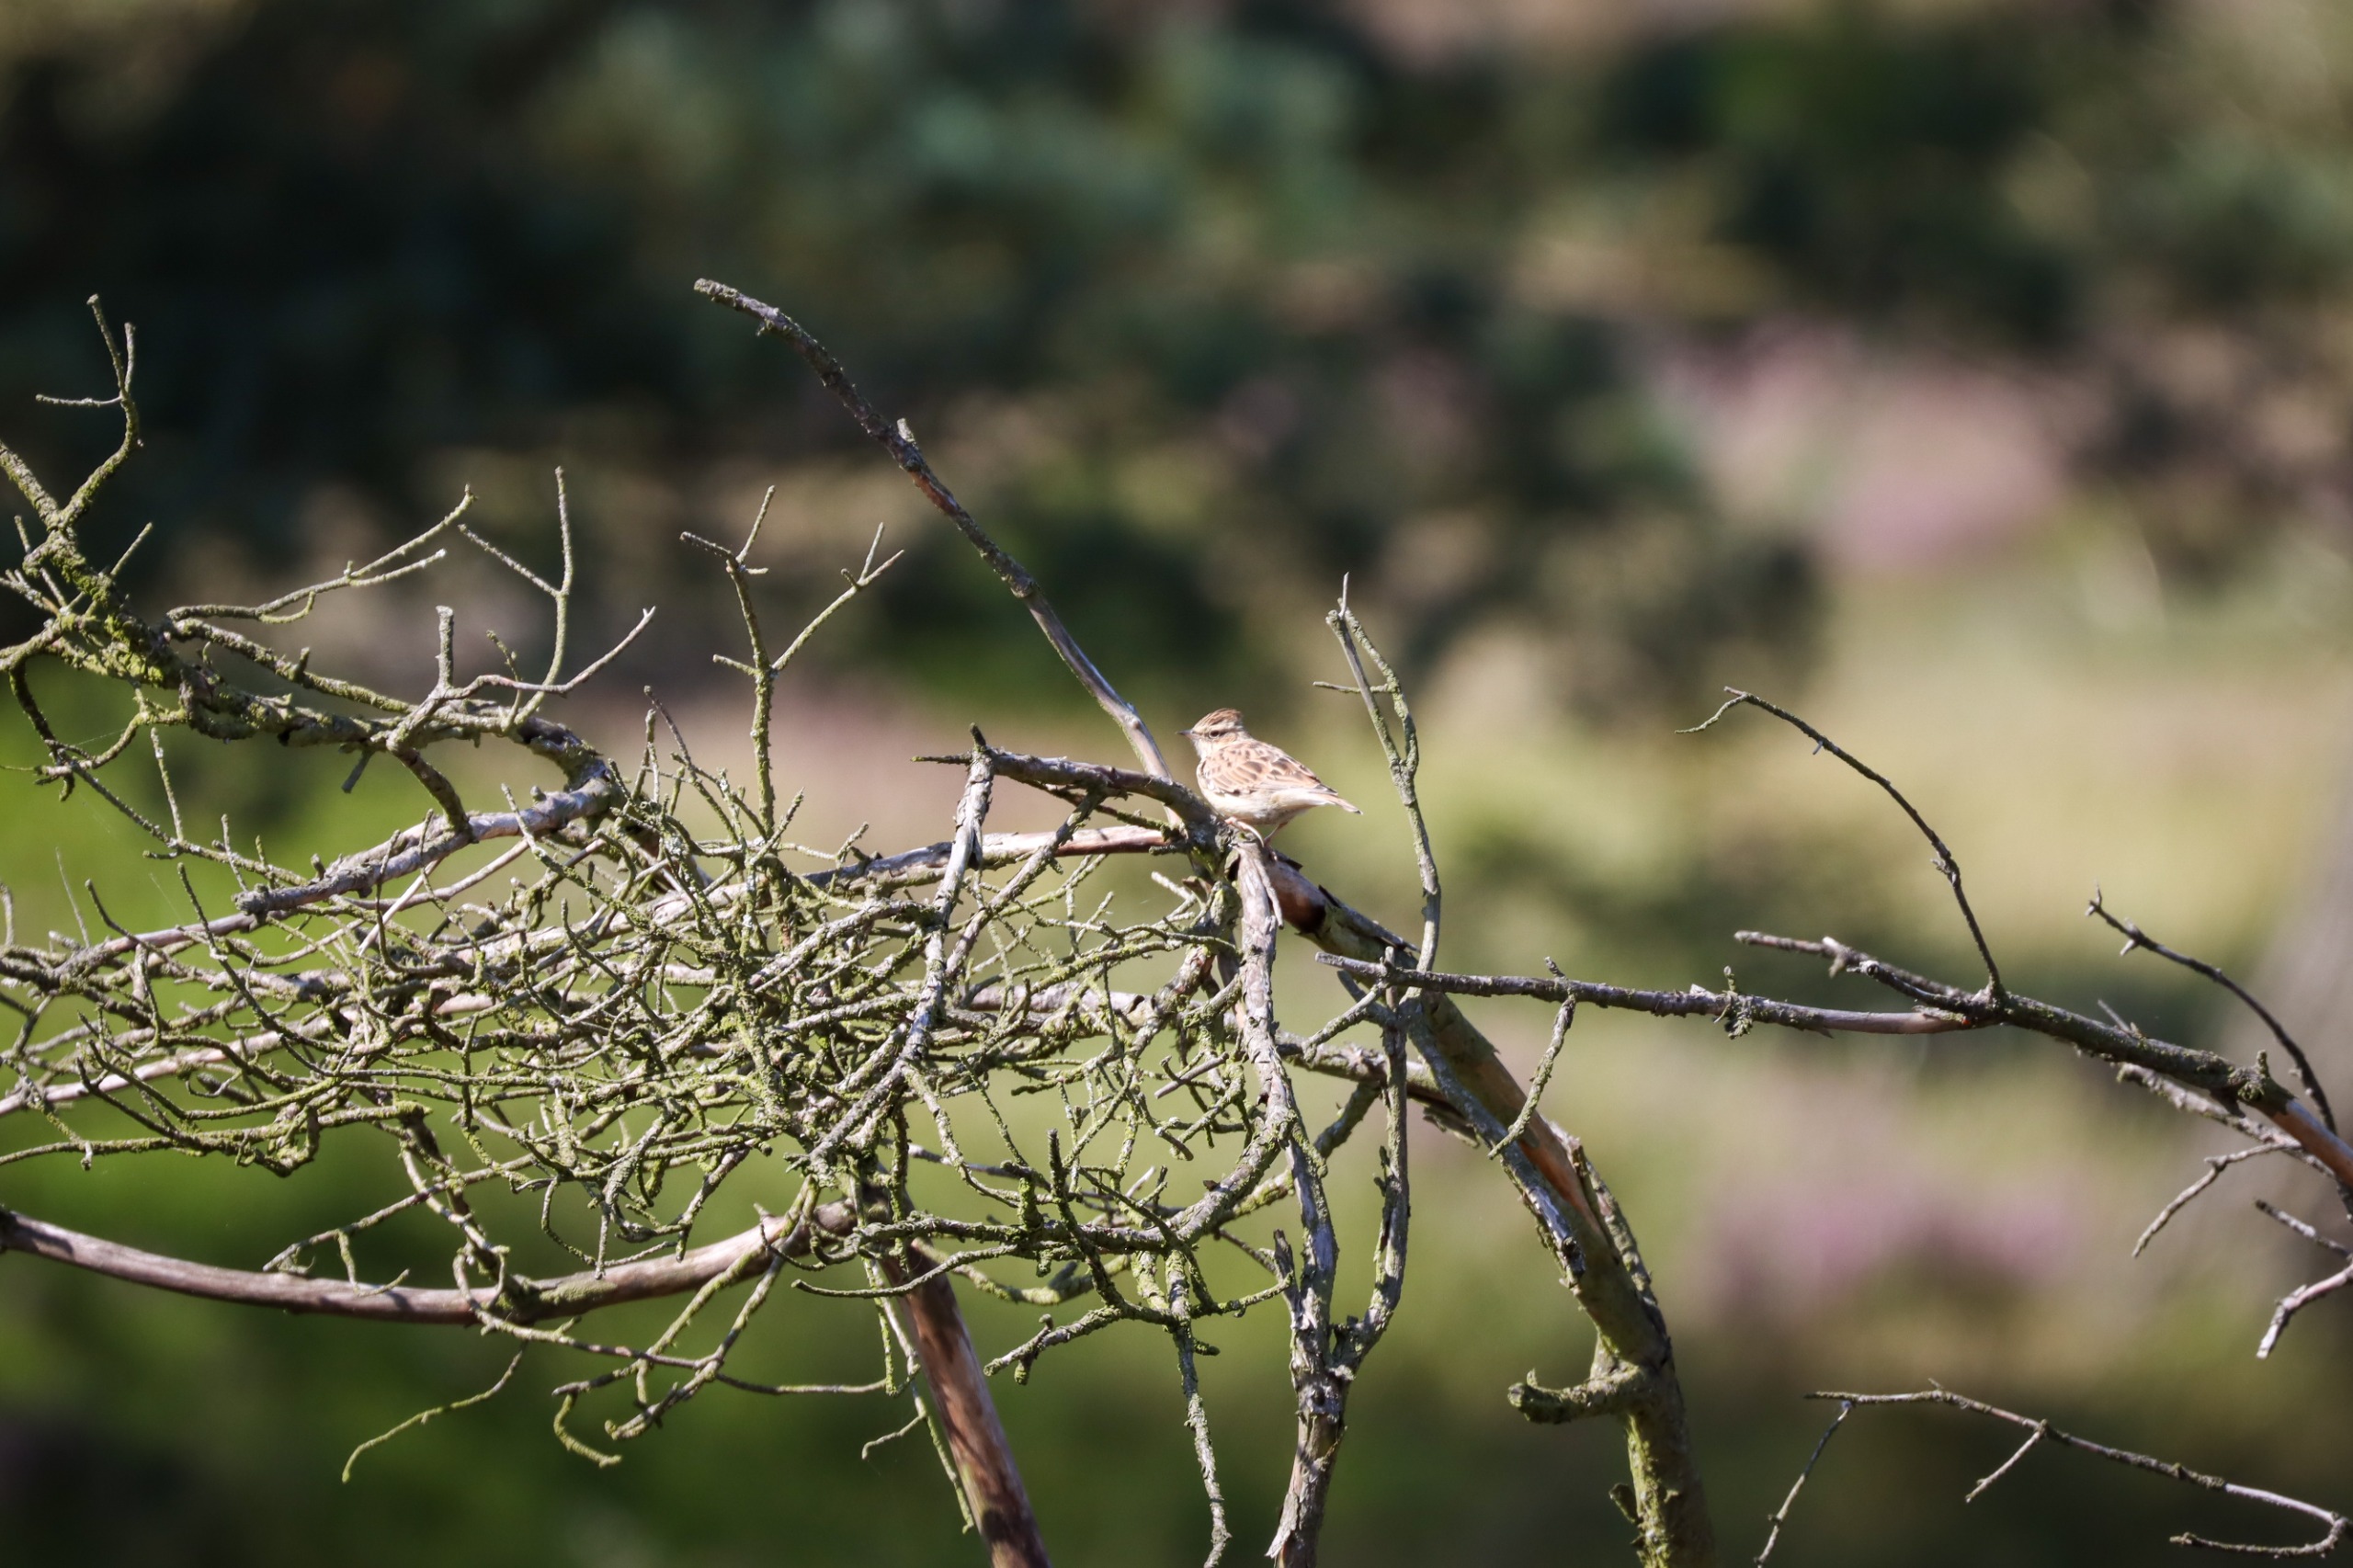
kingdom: Animalia
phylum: Chordata
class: Aves
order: Passeriformes
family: Alaudidae
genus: Lullula
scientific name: Lullula arborea
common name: Hedelærke
